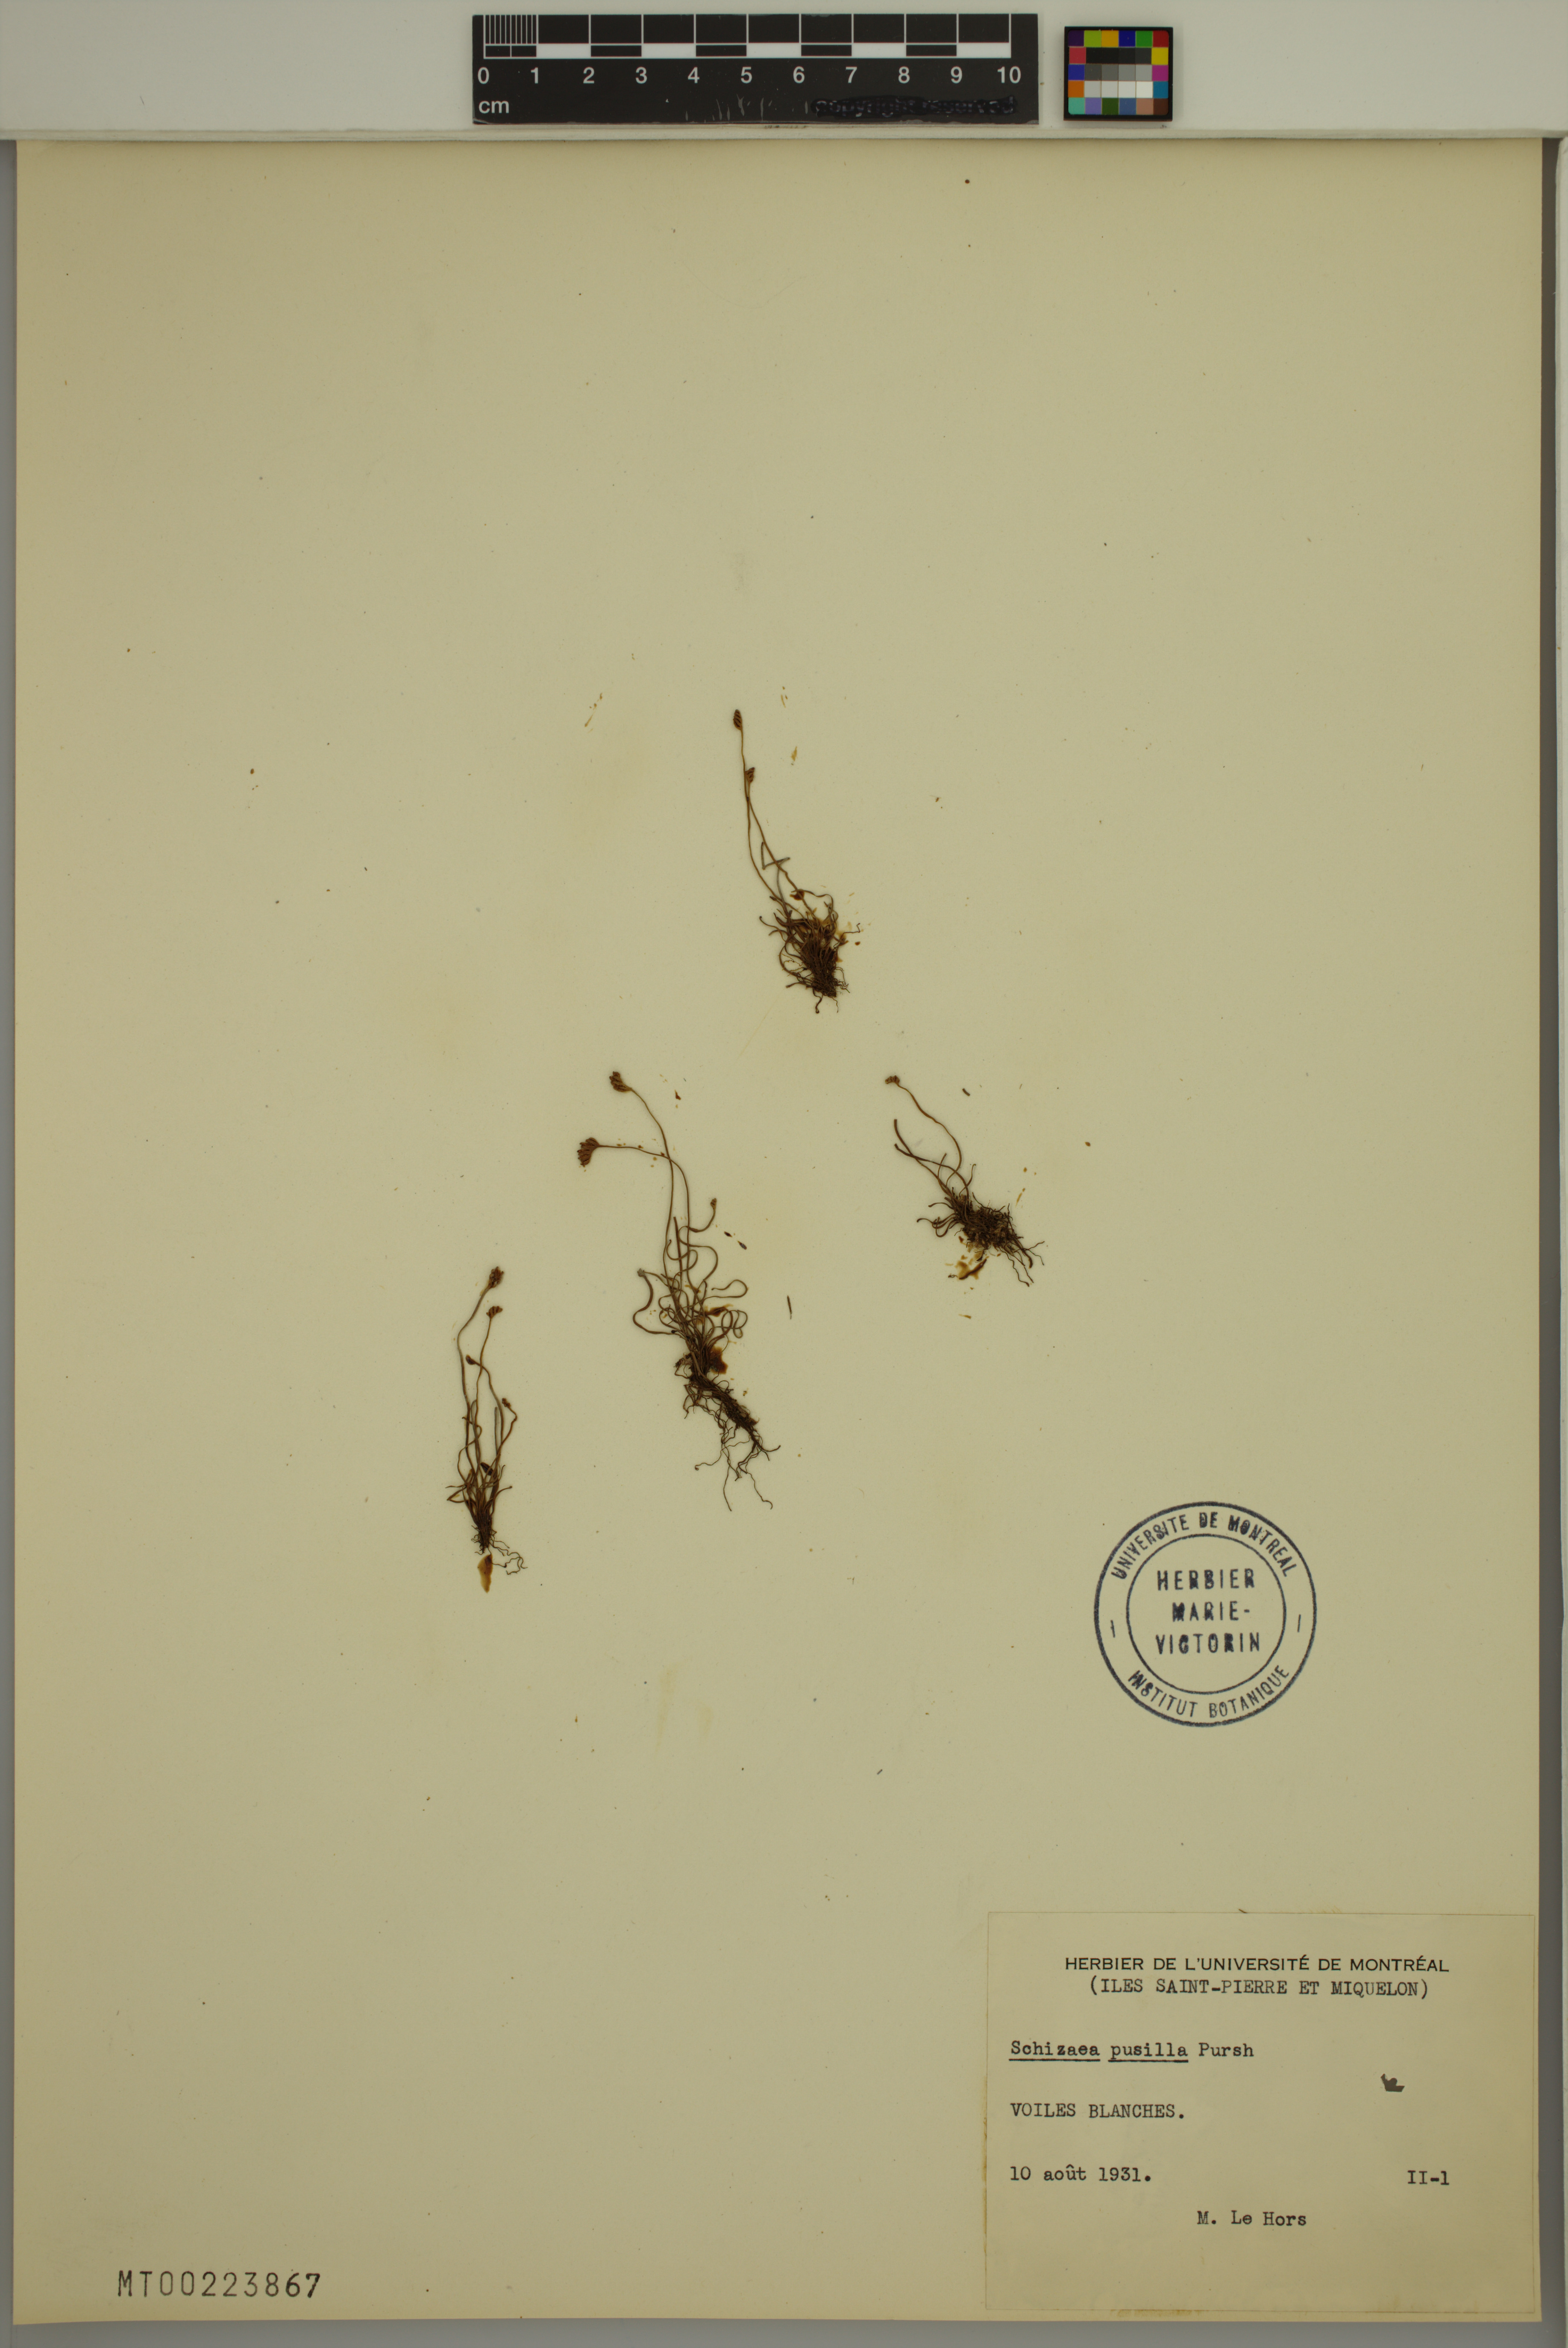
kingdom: Plantae
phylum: Tracheophyta
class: Polypodiopsida
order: Schizaeales
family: Schizaeaceae
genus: Schizaea
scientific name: Schizaea pusilla
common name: Curly-grass fern
